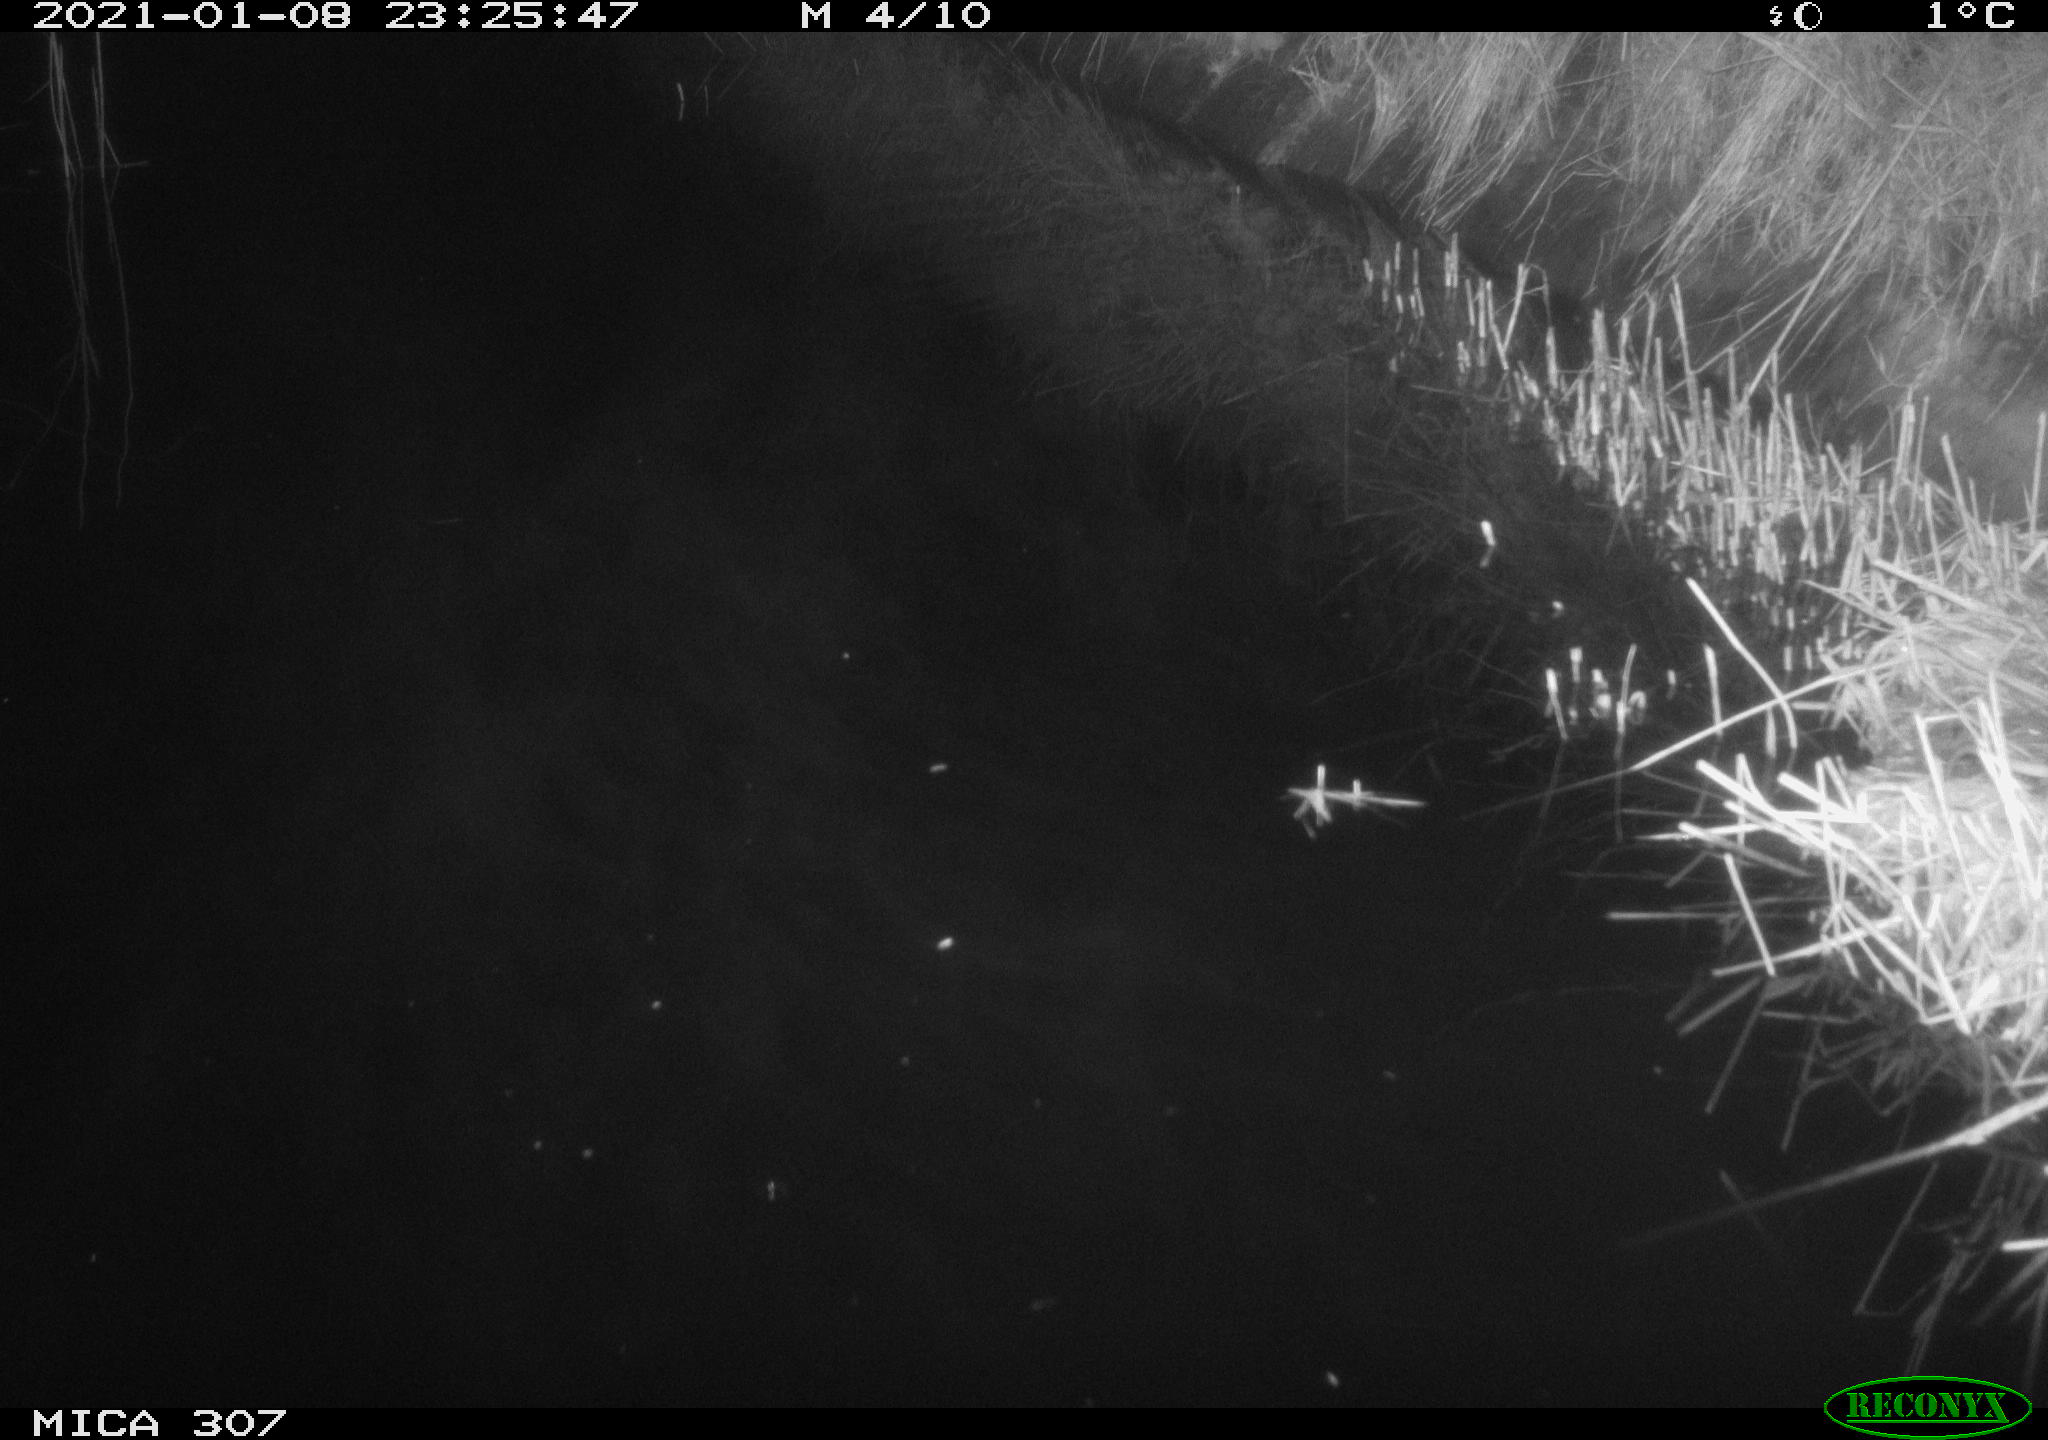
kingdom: Animalia
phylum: Chordata
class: Mammalia
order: Rodentia
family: Muridae
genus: Rattus
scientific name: Rattus norvegicus
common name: Brown rat
